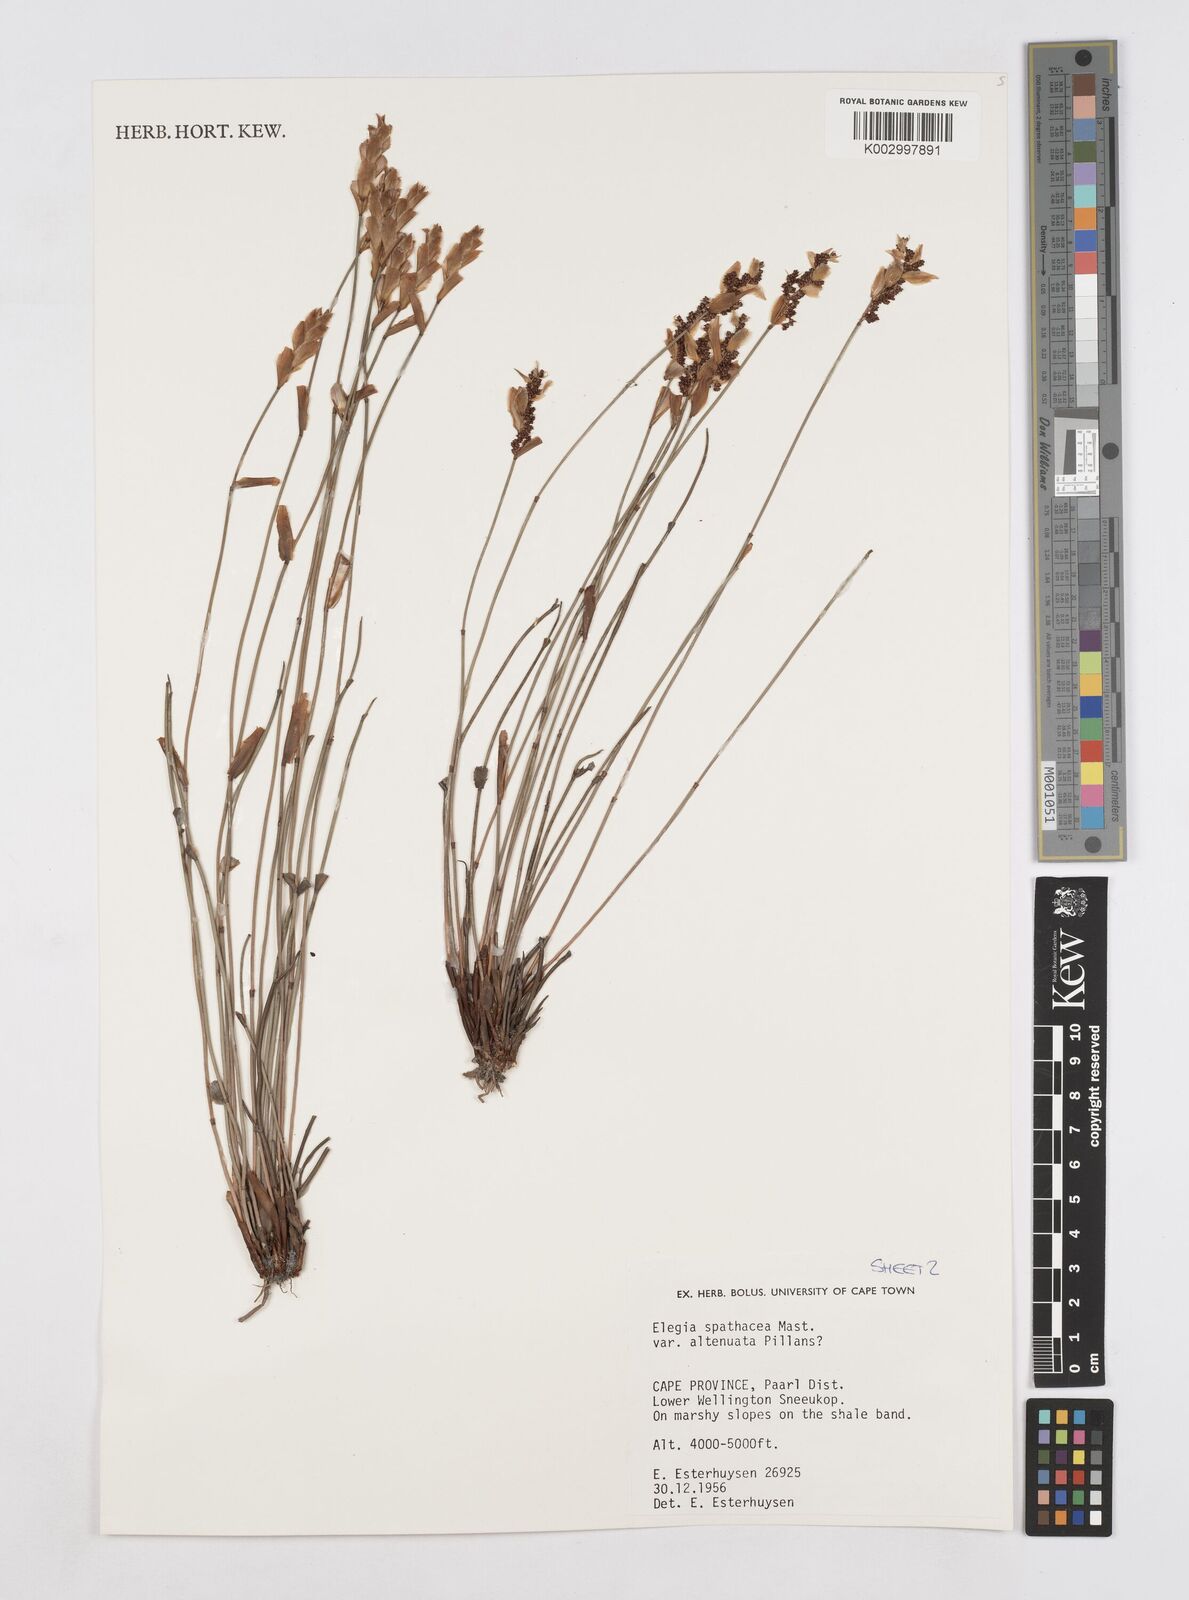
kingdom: Plantae
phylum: Tracheophyta
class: Liliopsida
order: Poales
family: Restionaceae
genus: Elegia
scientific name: Elegia rigida
